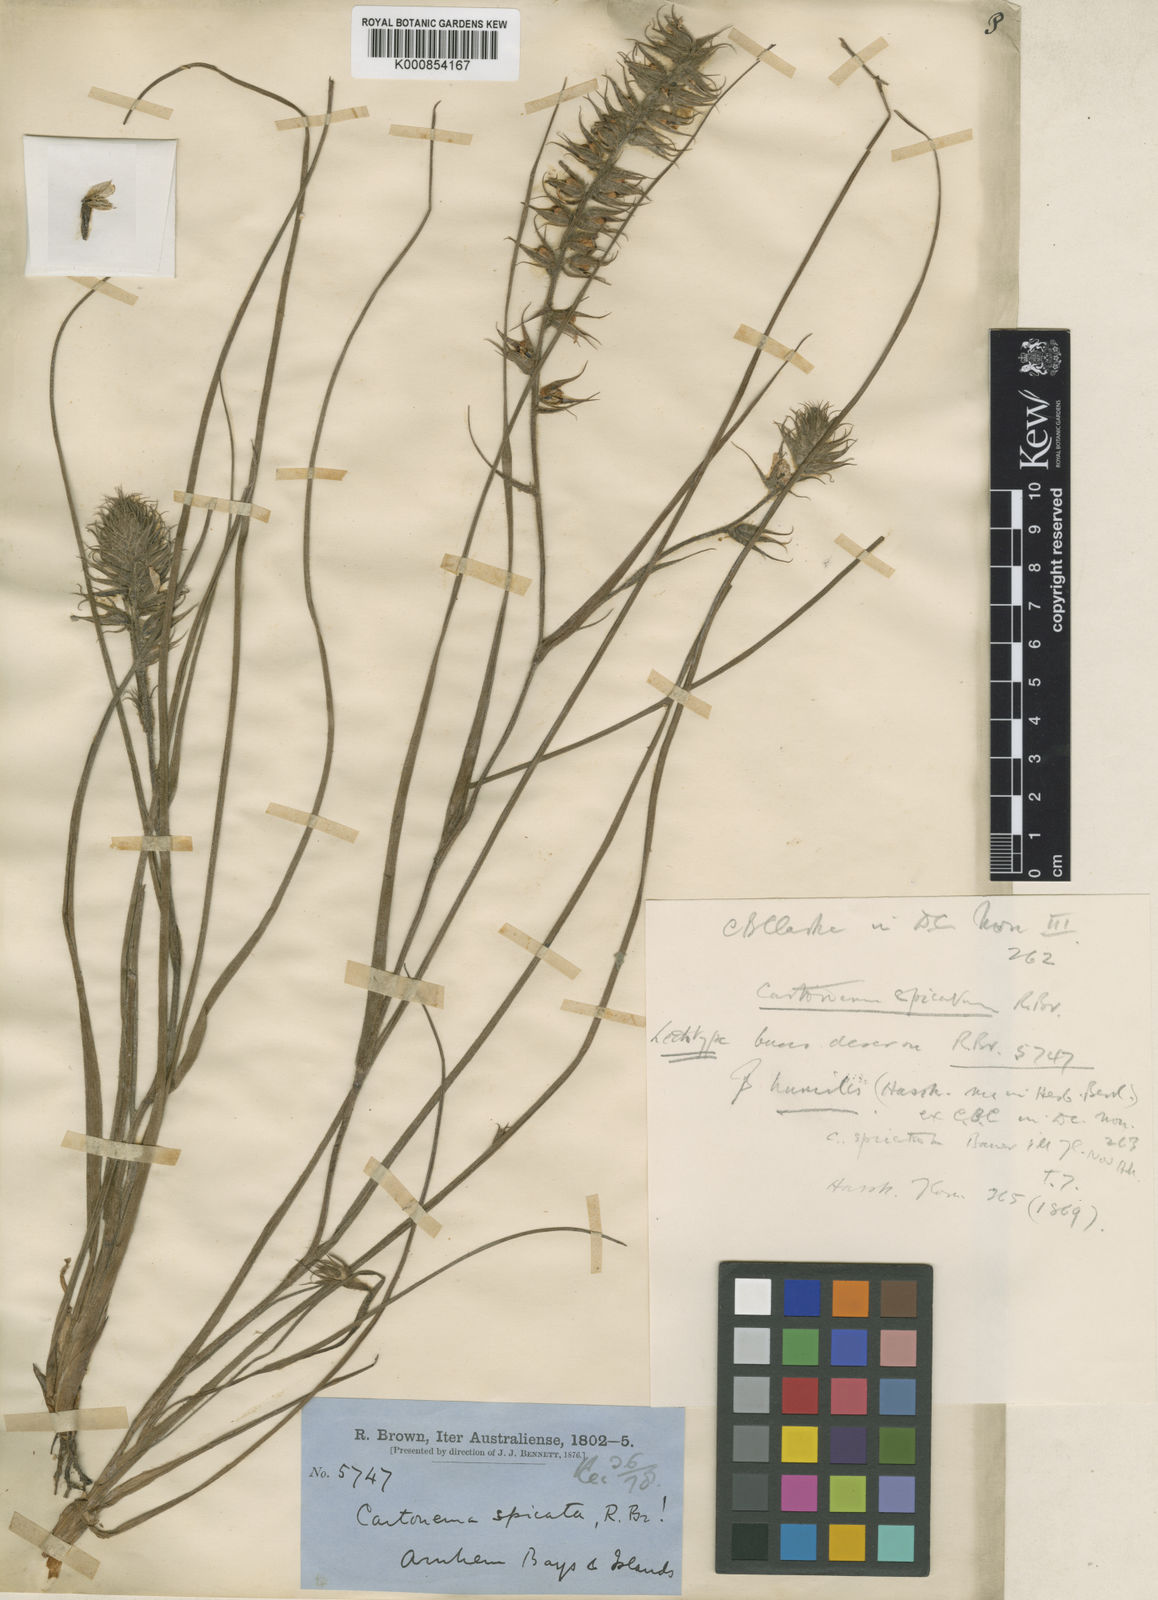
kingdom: Plantae
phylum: Tracheophyta
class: Liliopsida
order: Commelinales
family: Commelinaceae
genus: Cartonema
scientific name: Cartonema spicatum
